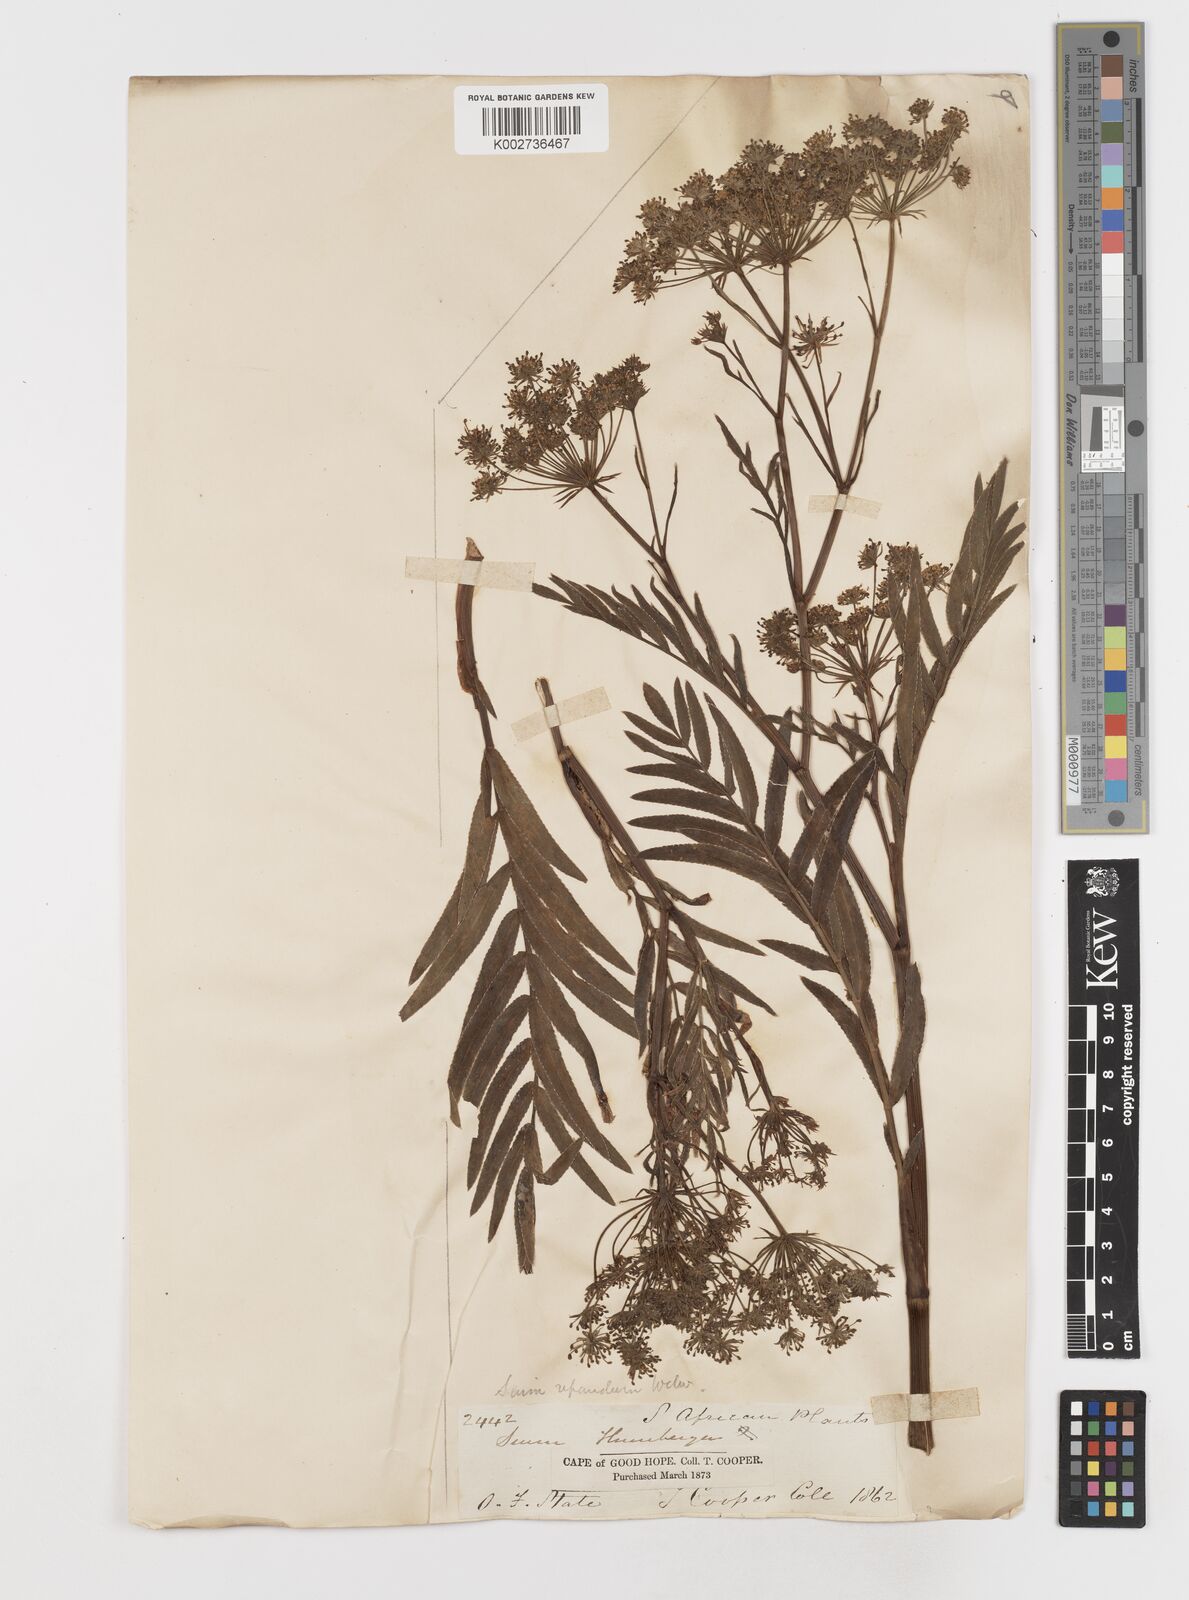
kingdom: Plantae
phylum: Tracheophyta
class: Magnoliopsida
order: Apiales
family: Apiaceae
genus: Berula
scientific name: Berula repanda
